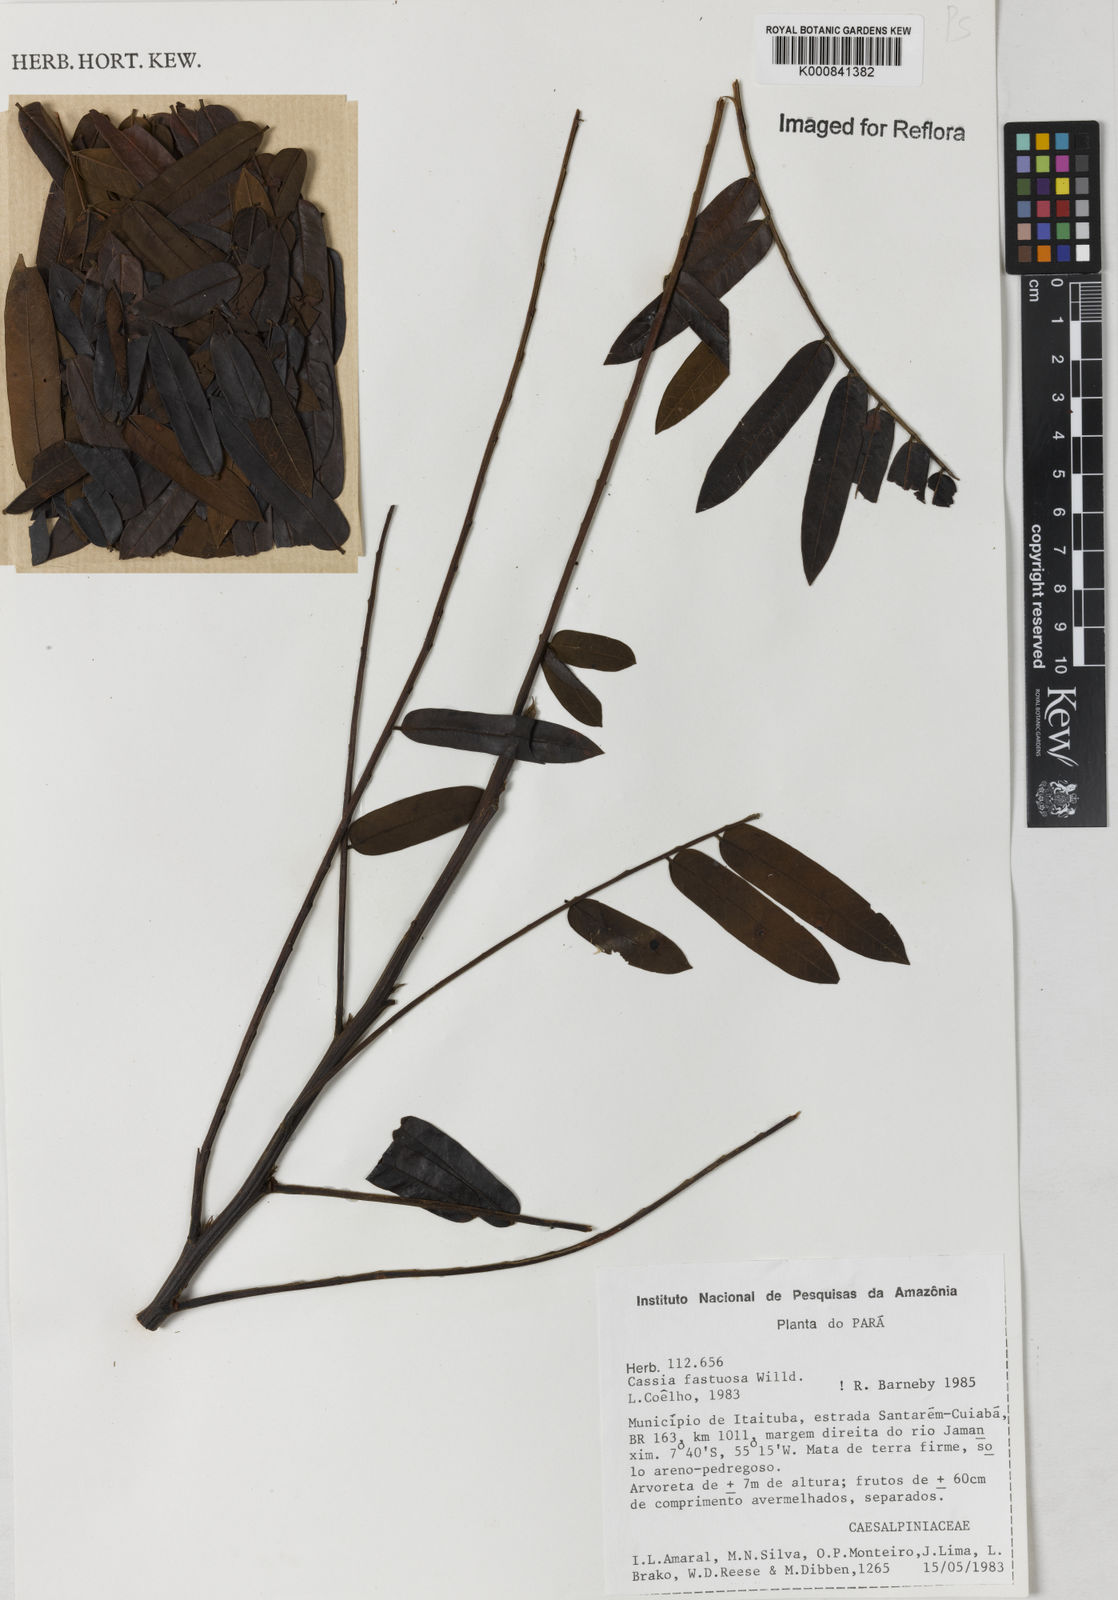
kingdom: Plantae
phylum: Tracheophyta
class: Magnoliopsida
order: Fabales
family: Fabaceae
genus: Cassia
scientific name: Cassia
